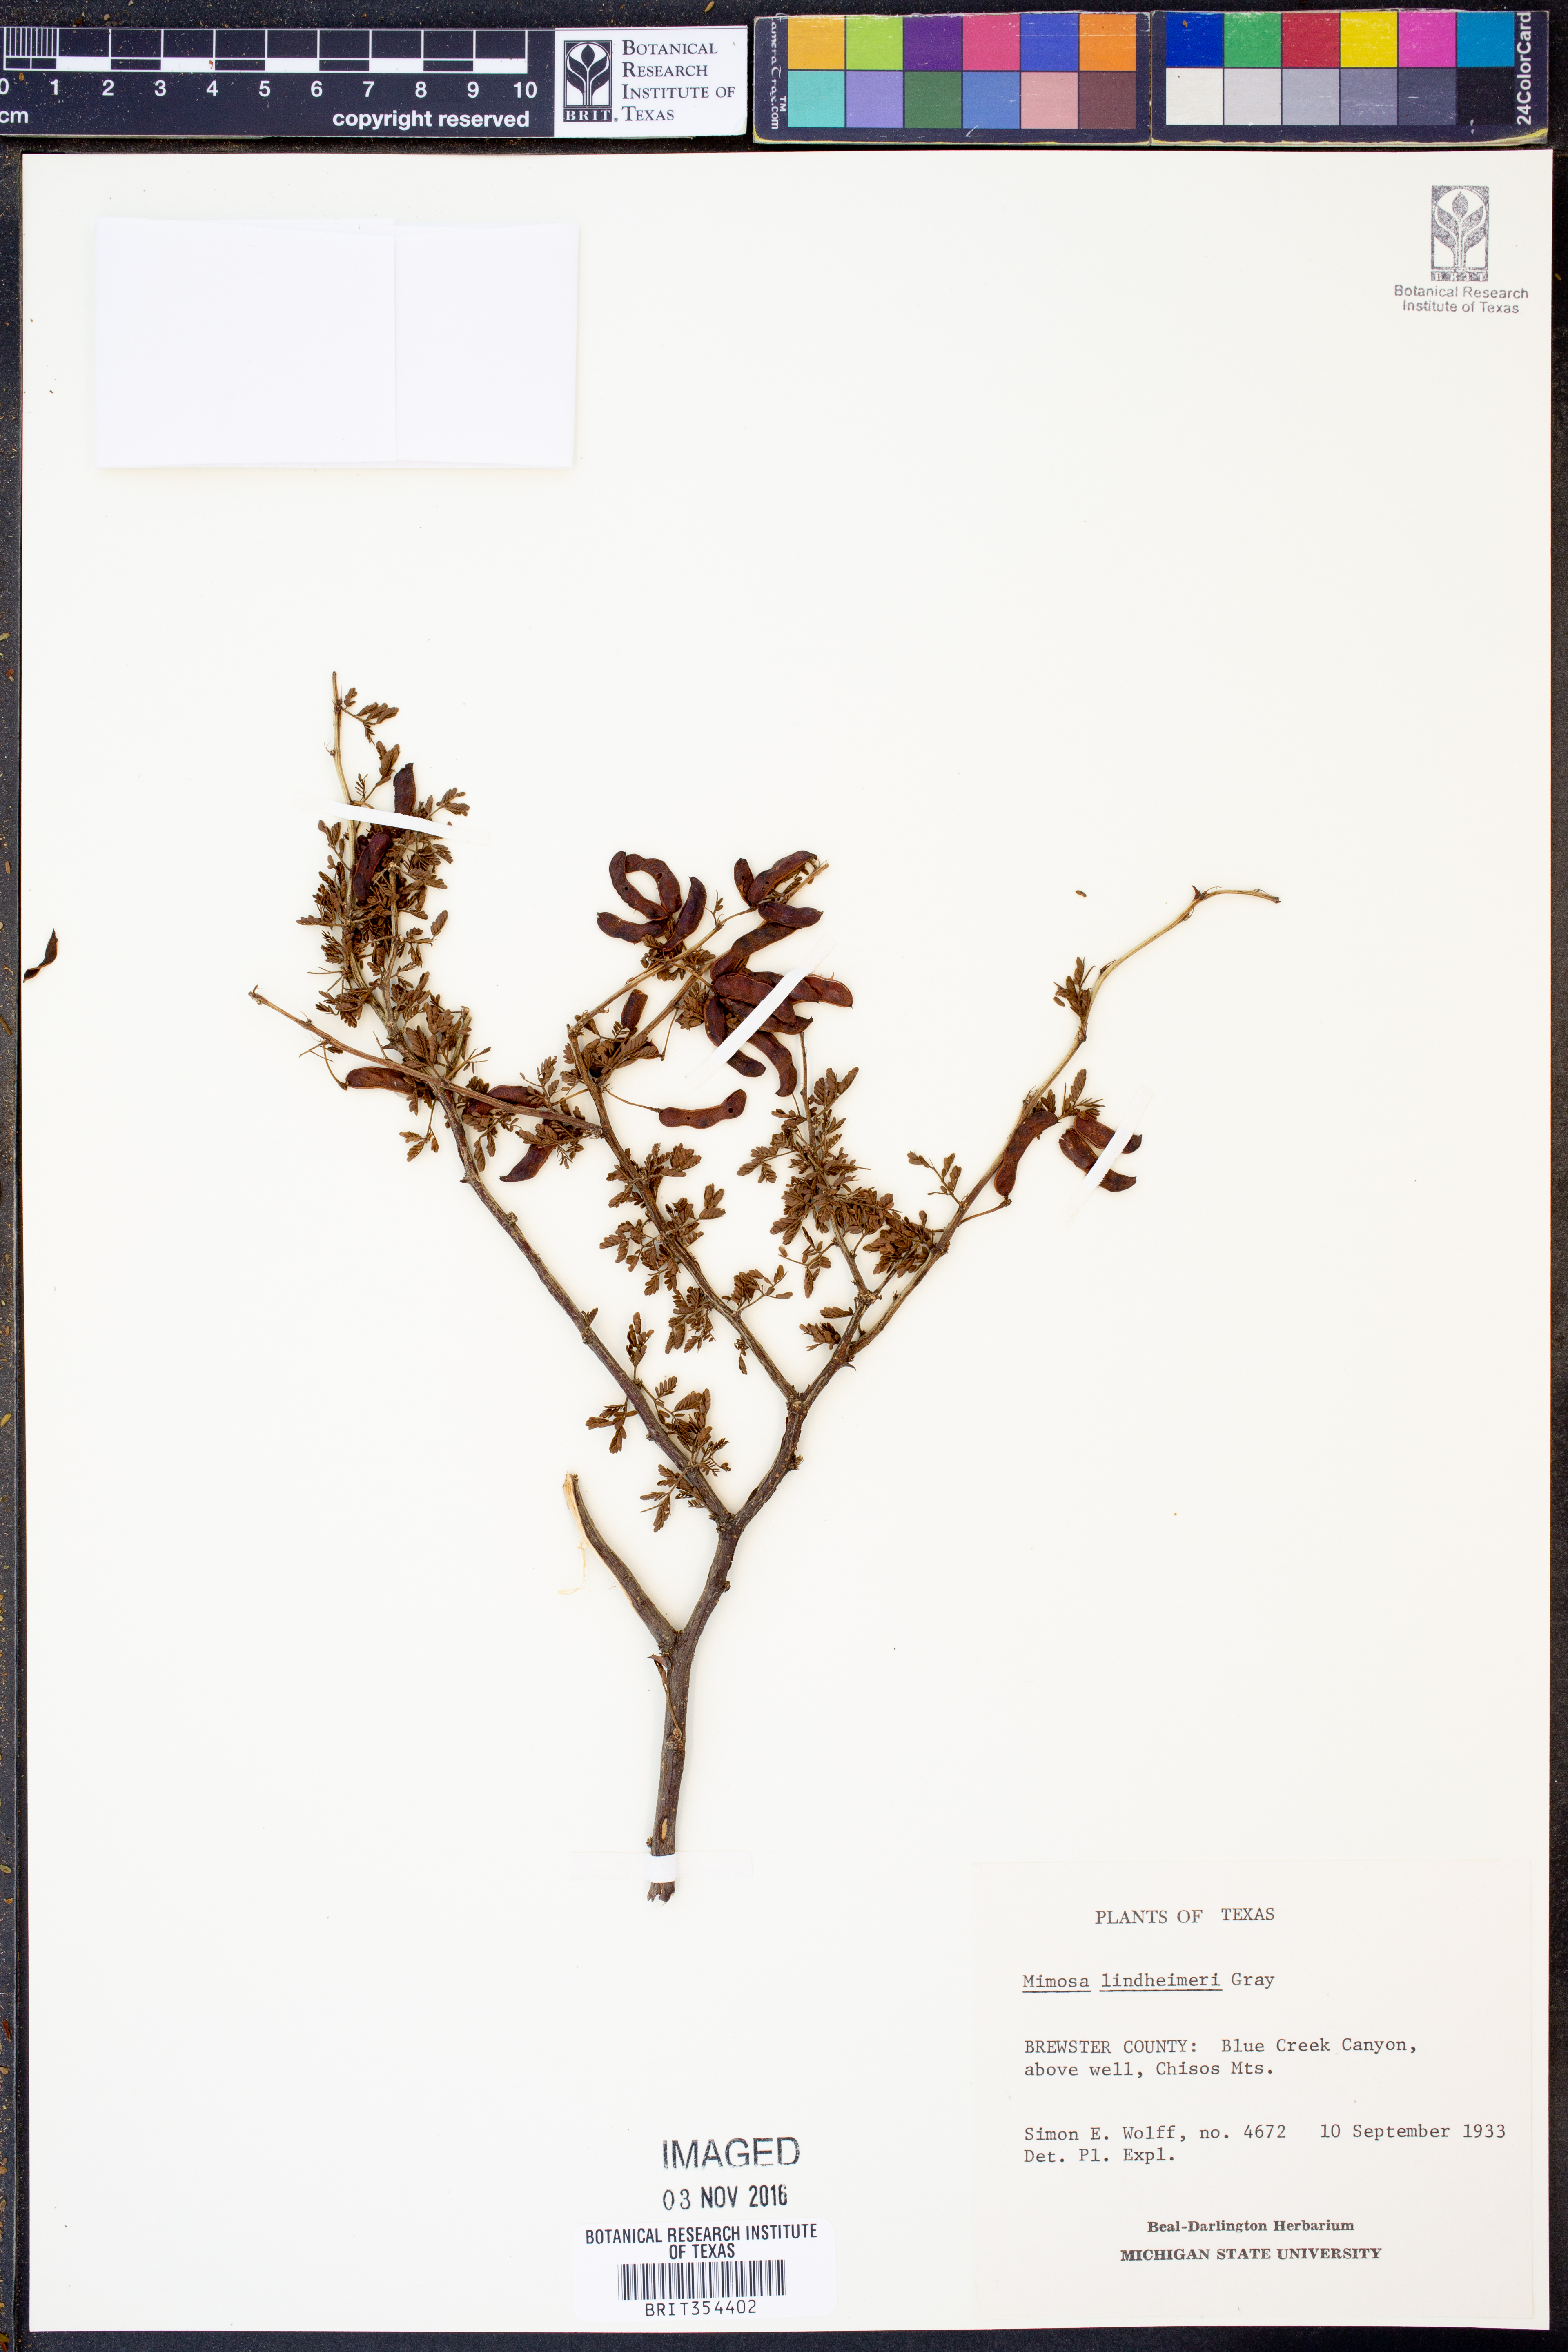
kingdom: Plantae
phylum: Tracheophyta
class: Magnoliopsida
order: Fabales
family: Fabaceae
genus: Mimosa
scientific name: Mimosa biuncifera
